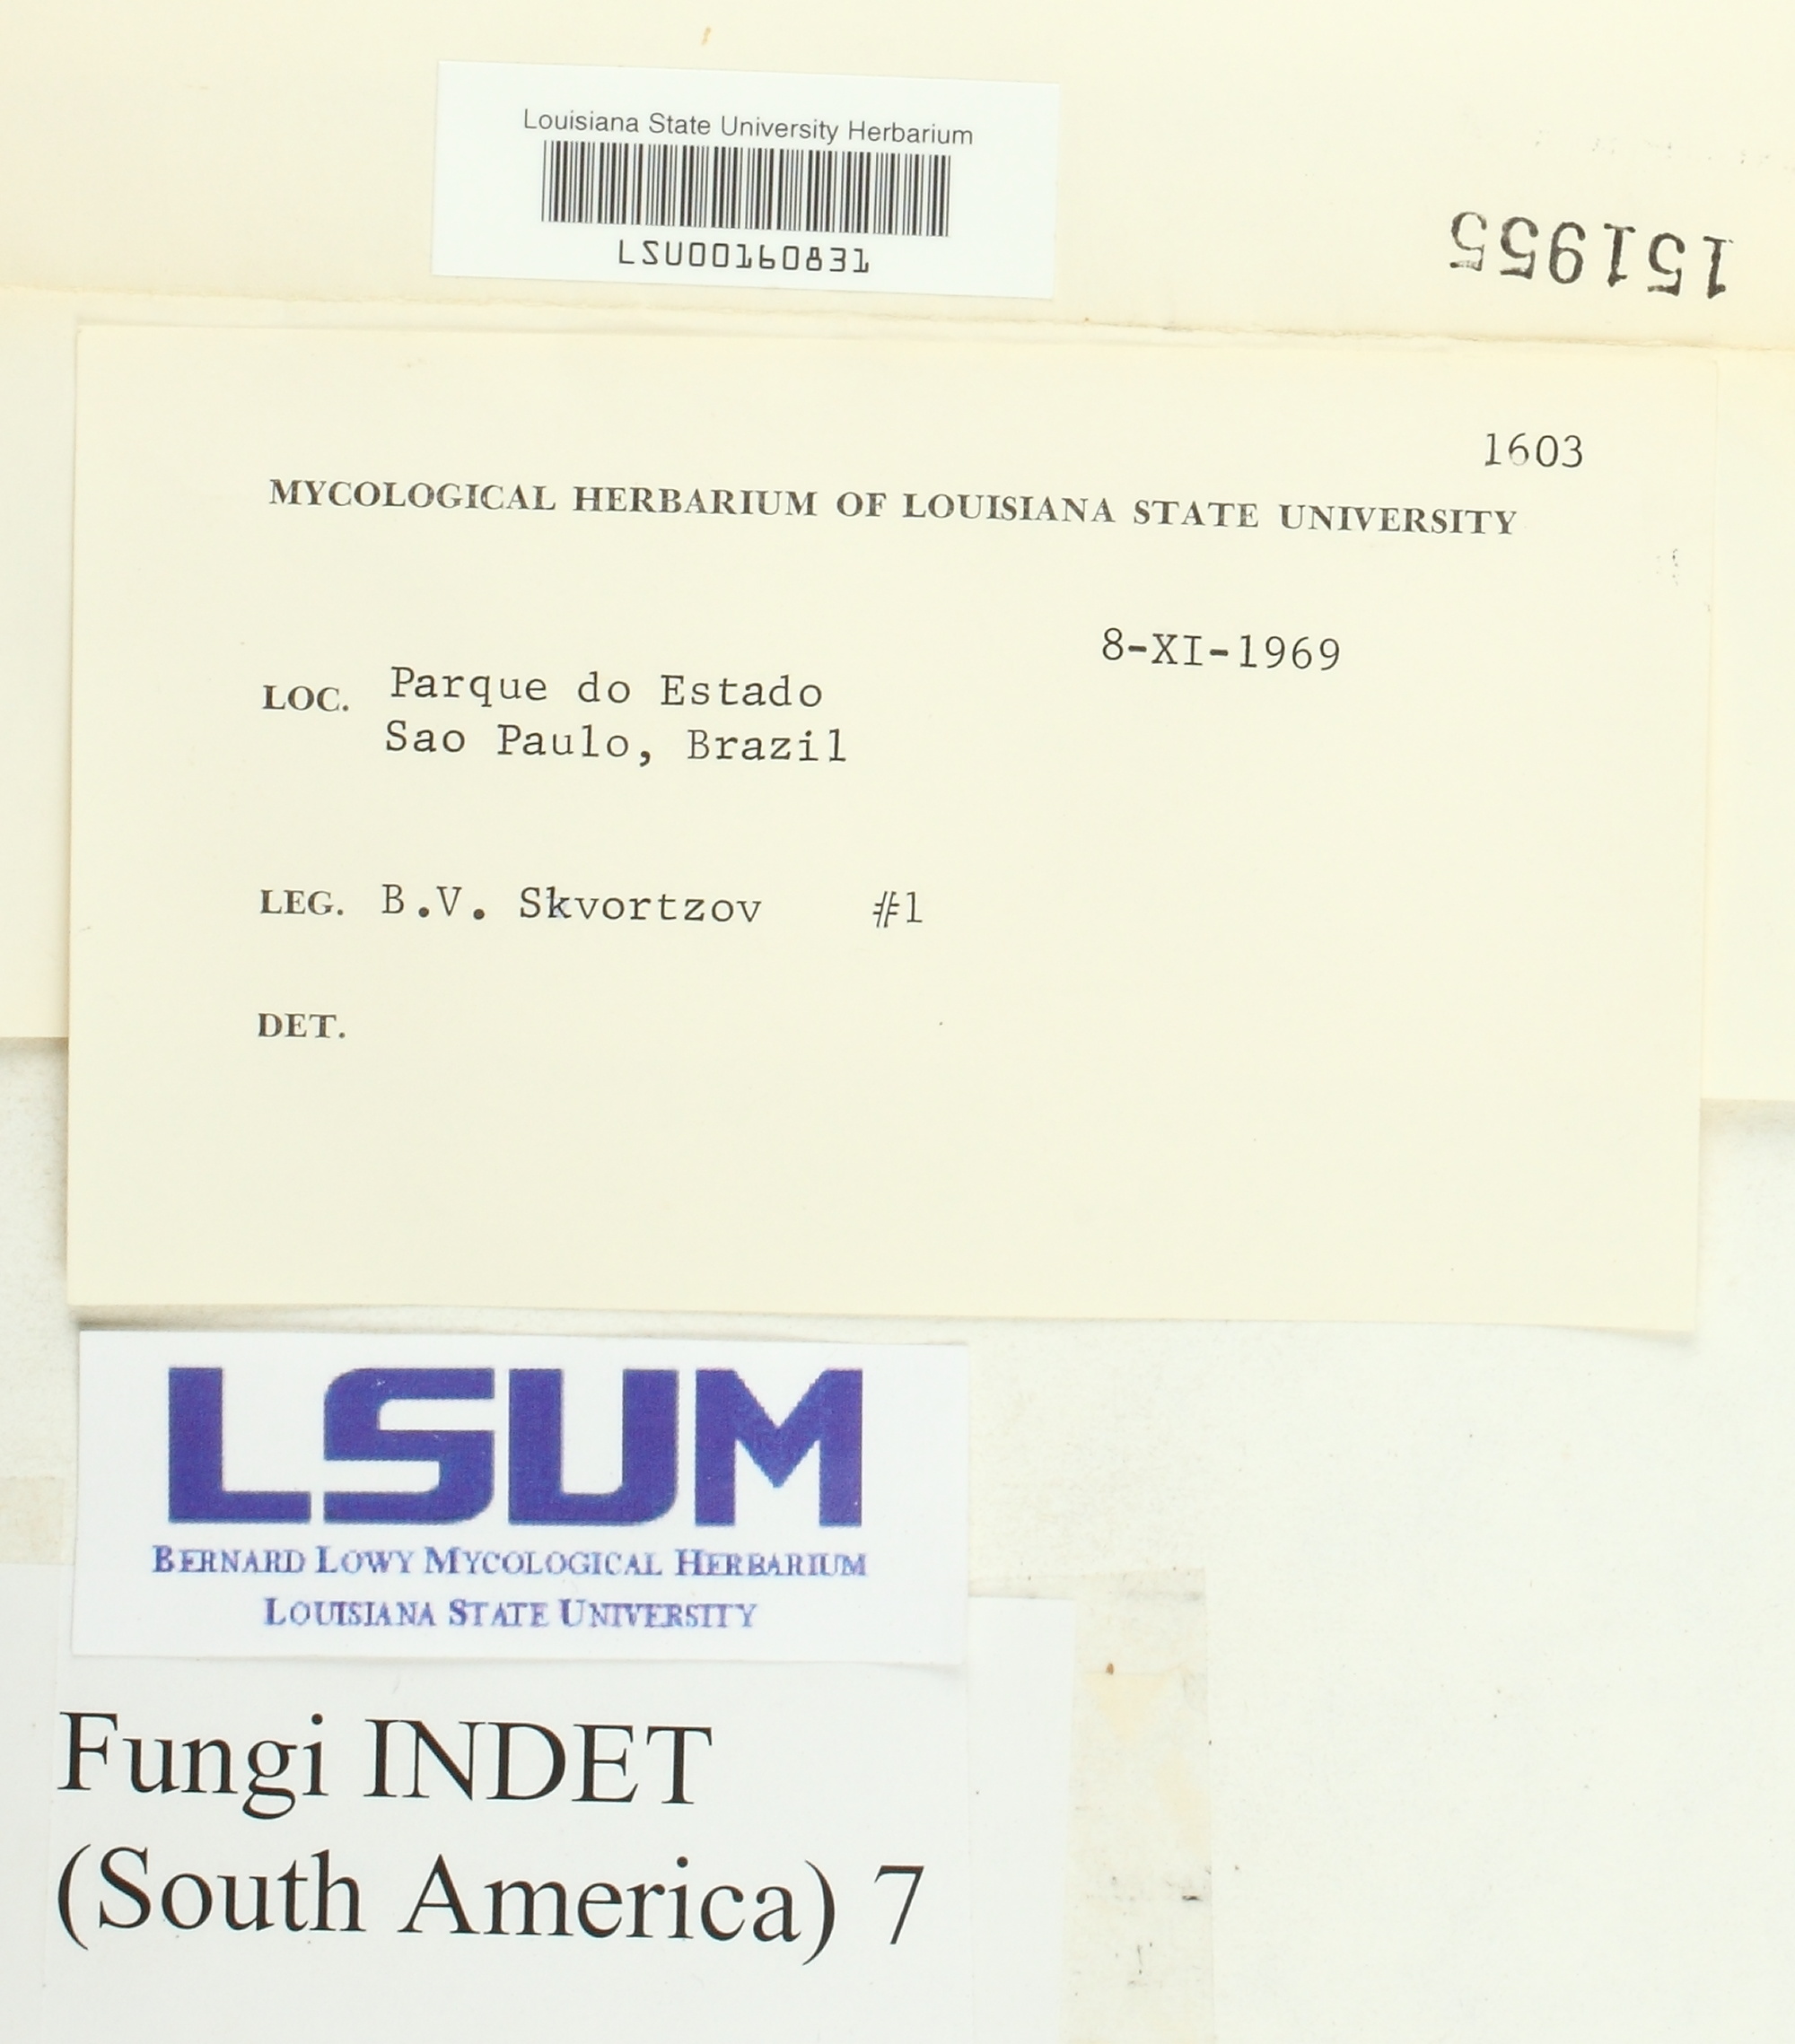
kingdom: Fungi
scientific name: Fungi
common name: Fungi
